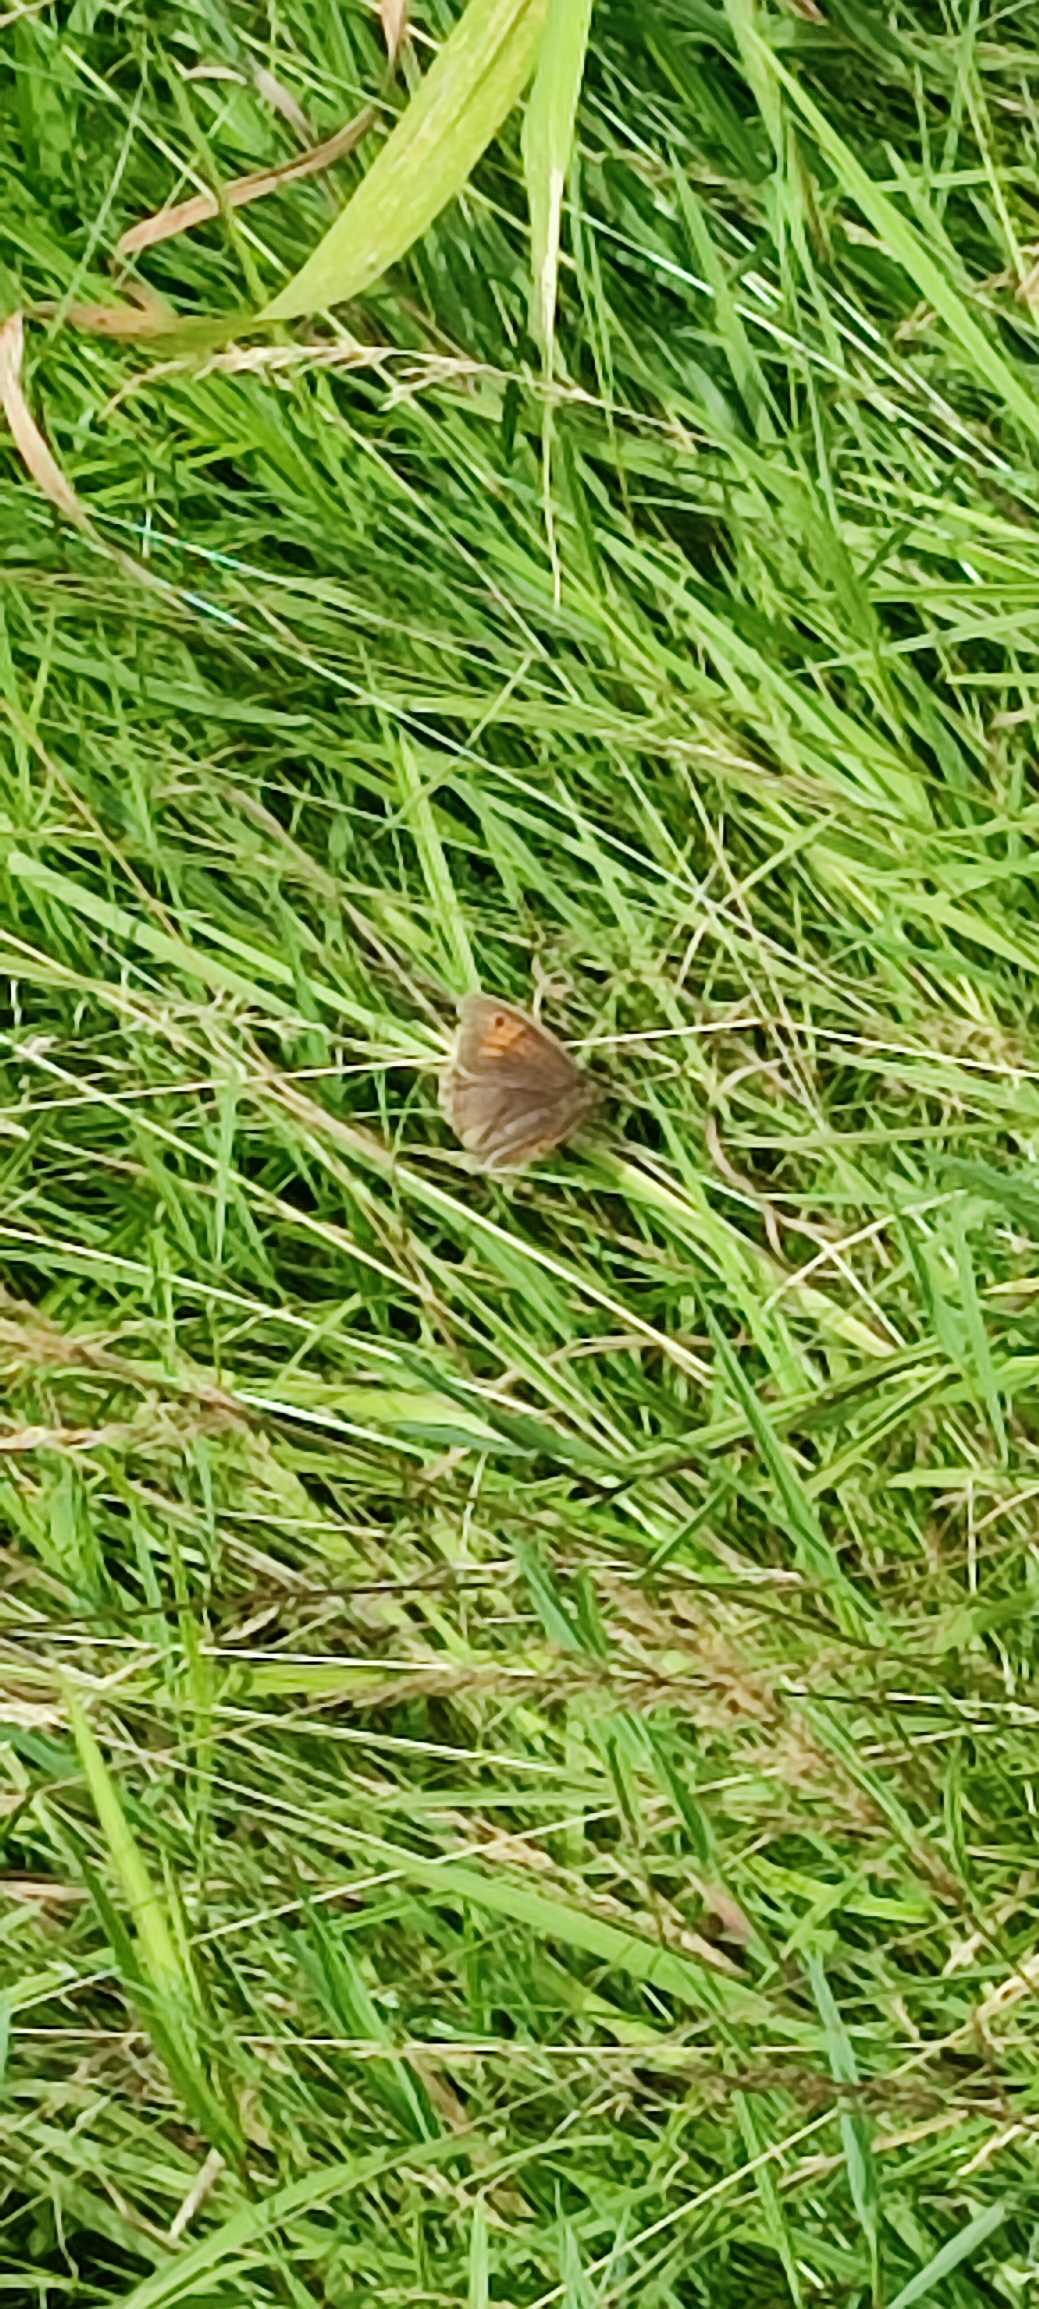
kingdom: Animalia
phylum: Arthropoda
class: Insecta
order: Lepidoptera
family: Nymphalidae
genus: Maniola
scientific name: Maniola jurtina
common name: Græsrandøje
